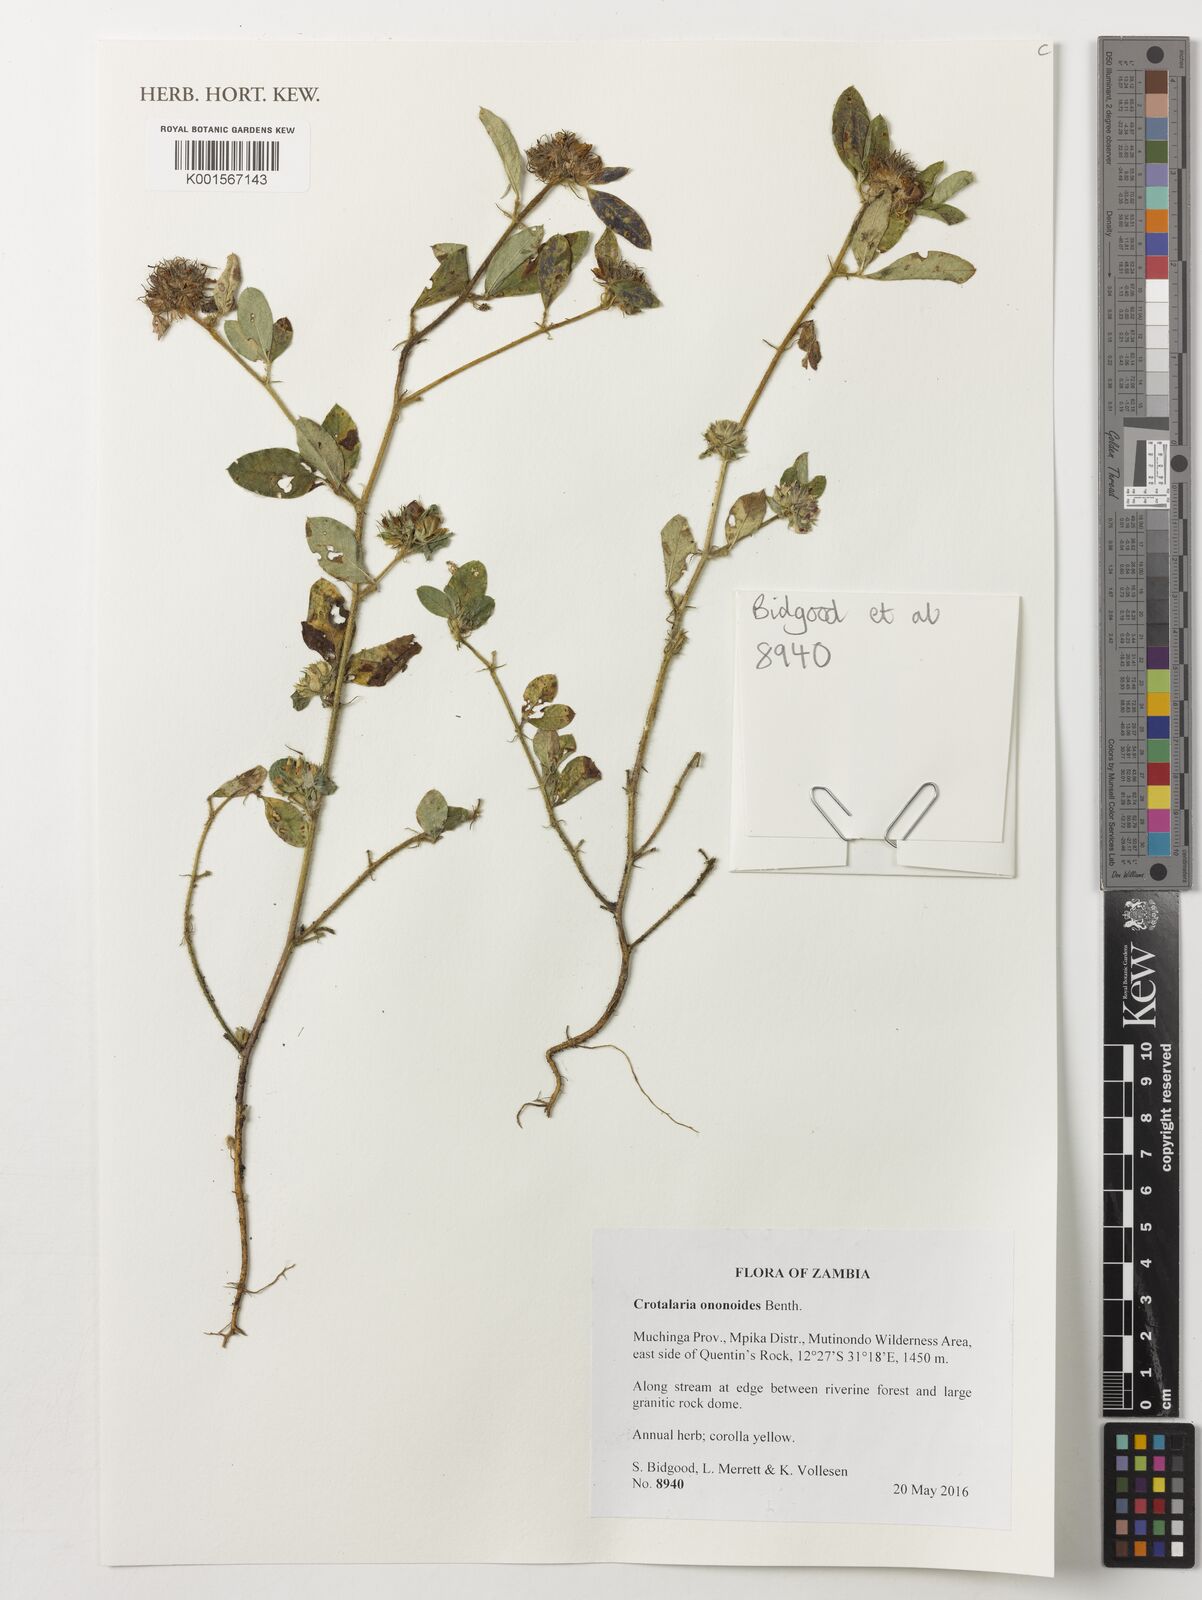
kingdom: Plantae
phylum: Tracheophyta
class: Magnoliopsida
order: Fabales
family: Fabaceae
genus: Crotalaria
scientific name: Crotalaria ononoides
